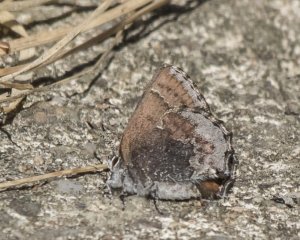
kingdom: Animalia
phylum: Arthropoda
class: Insecta
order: Lepidoptera
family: Lycaenidae
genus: Callophrys
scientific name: Callophrys polios
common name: Hoary Elfin
